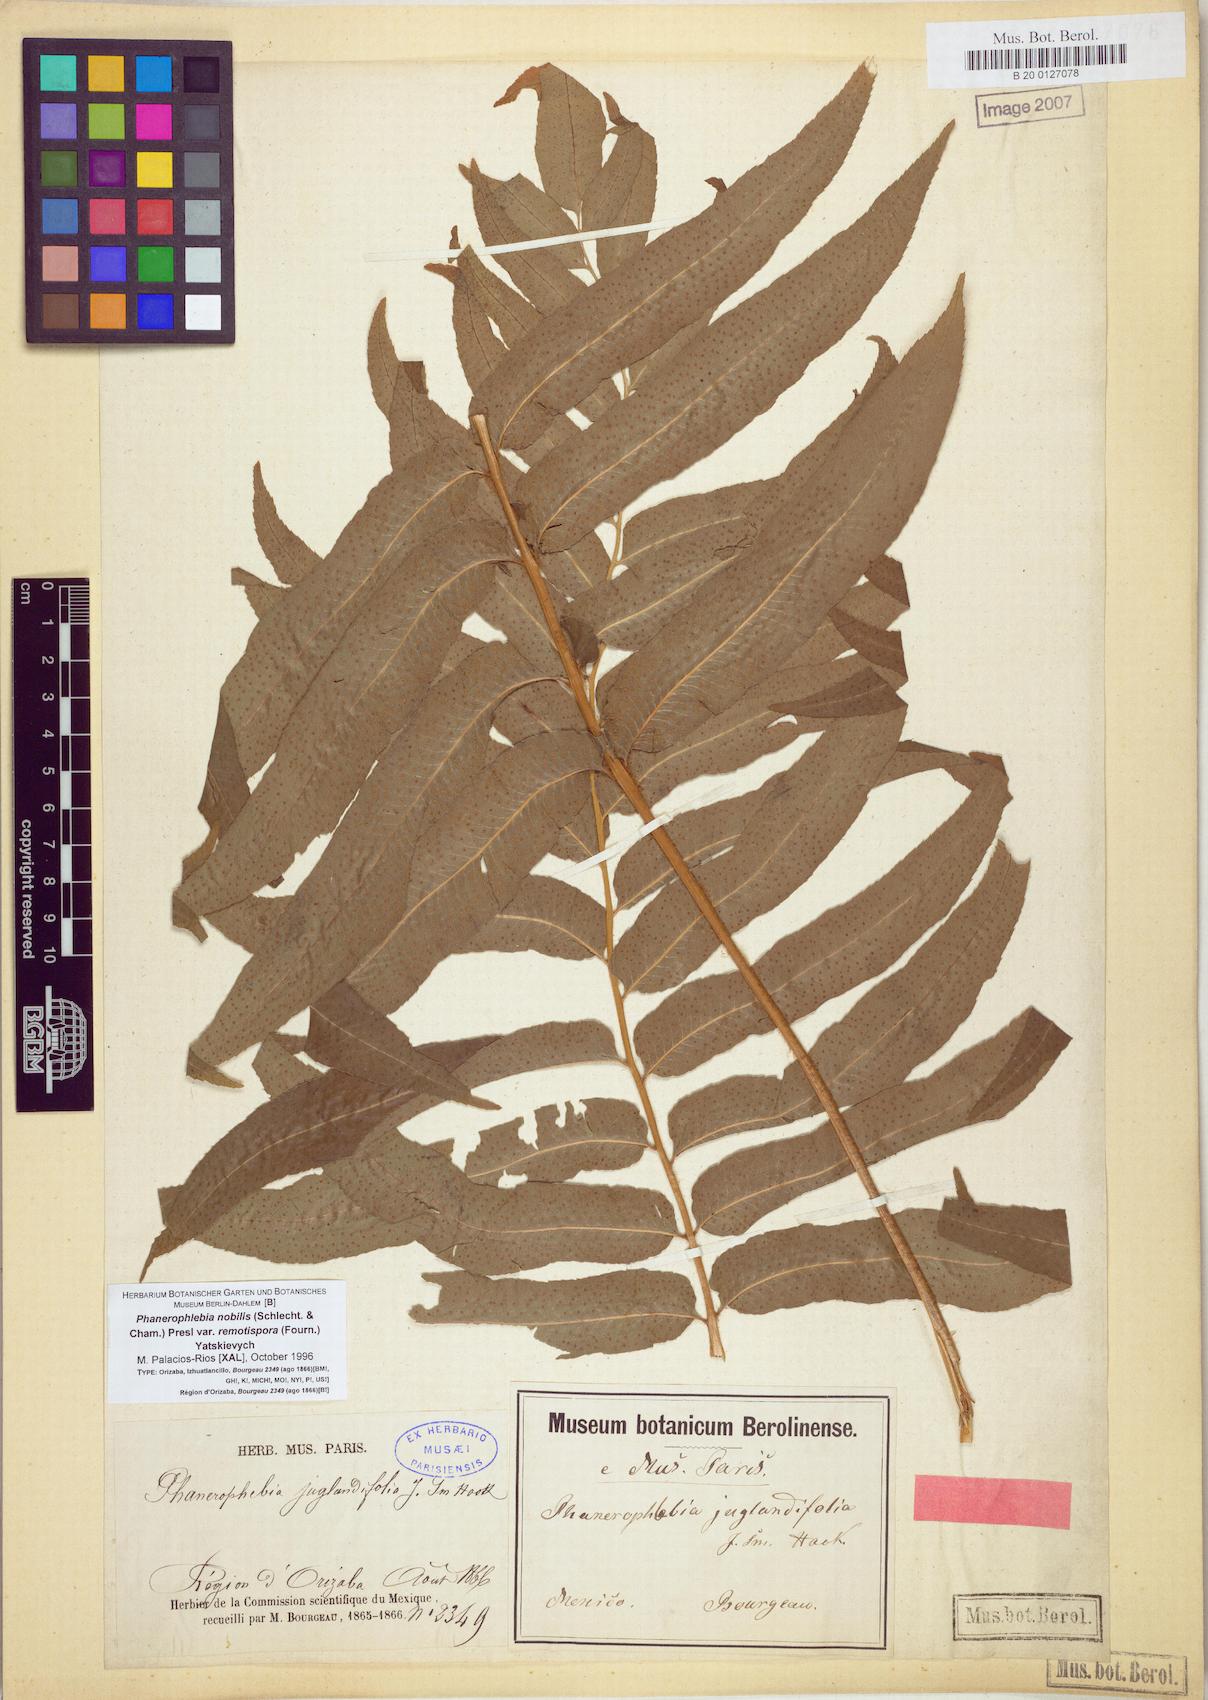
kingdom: Plantae
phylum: Tracheophyta
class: Polypodiopsida
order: Polypodiales
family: Dryopteridaceae
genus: Phanerophlebia
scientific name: Phanerophlebia remotispora
